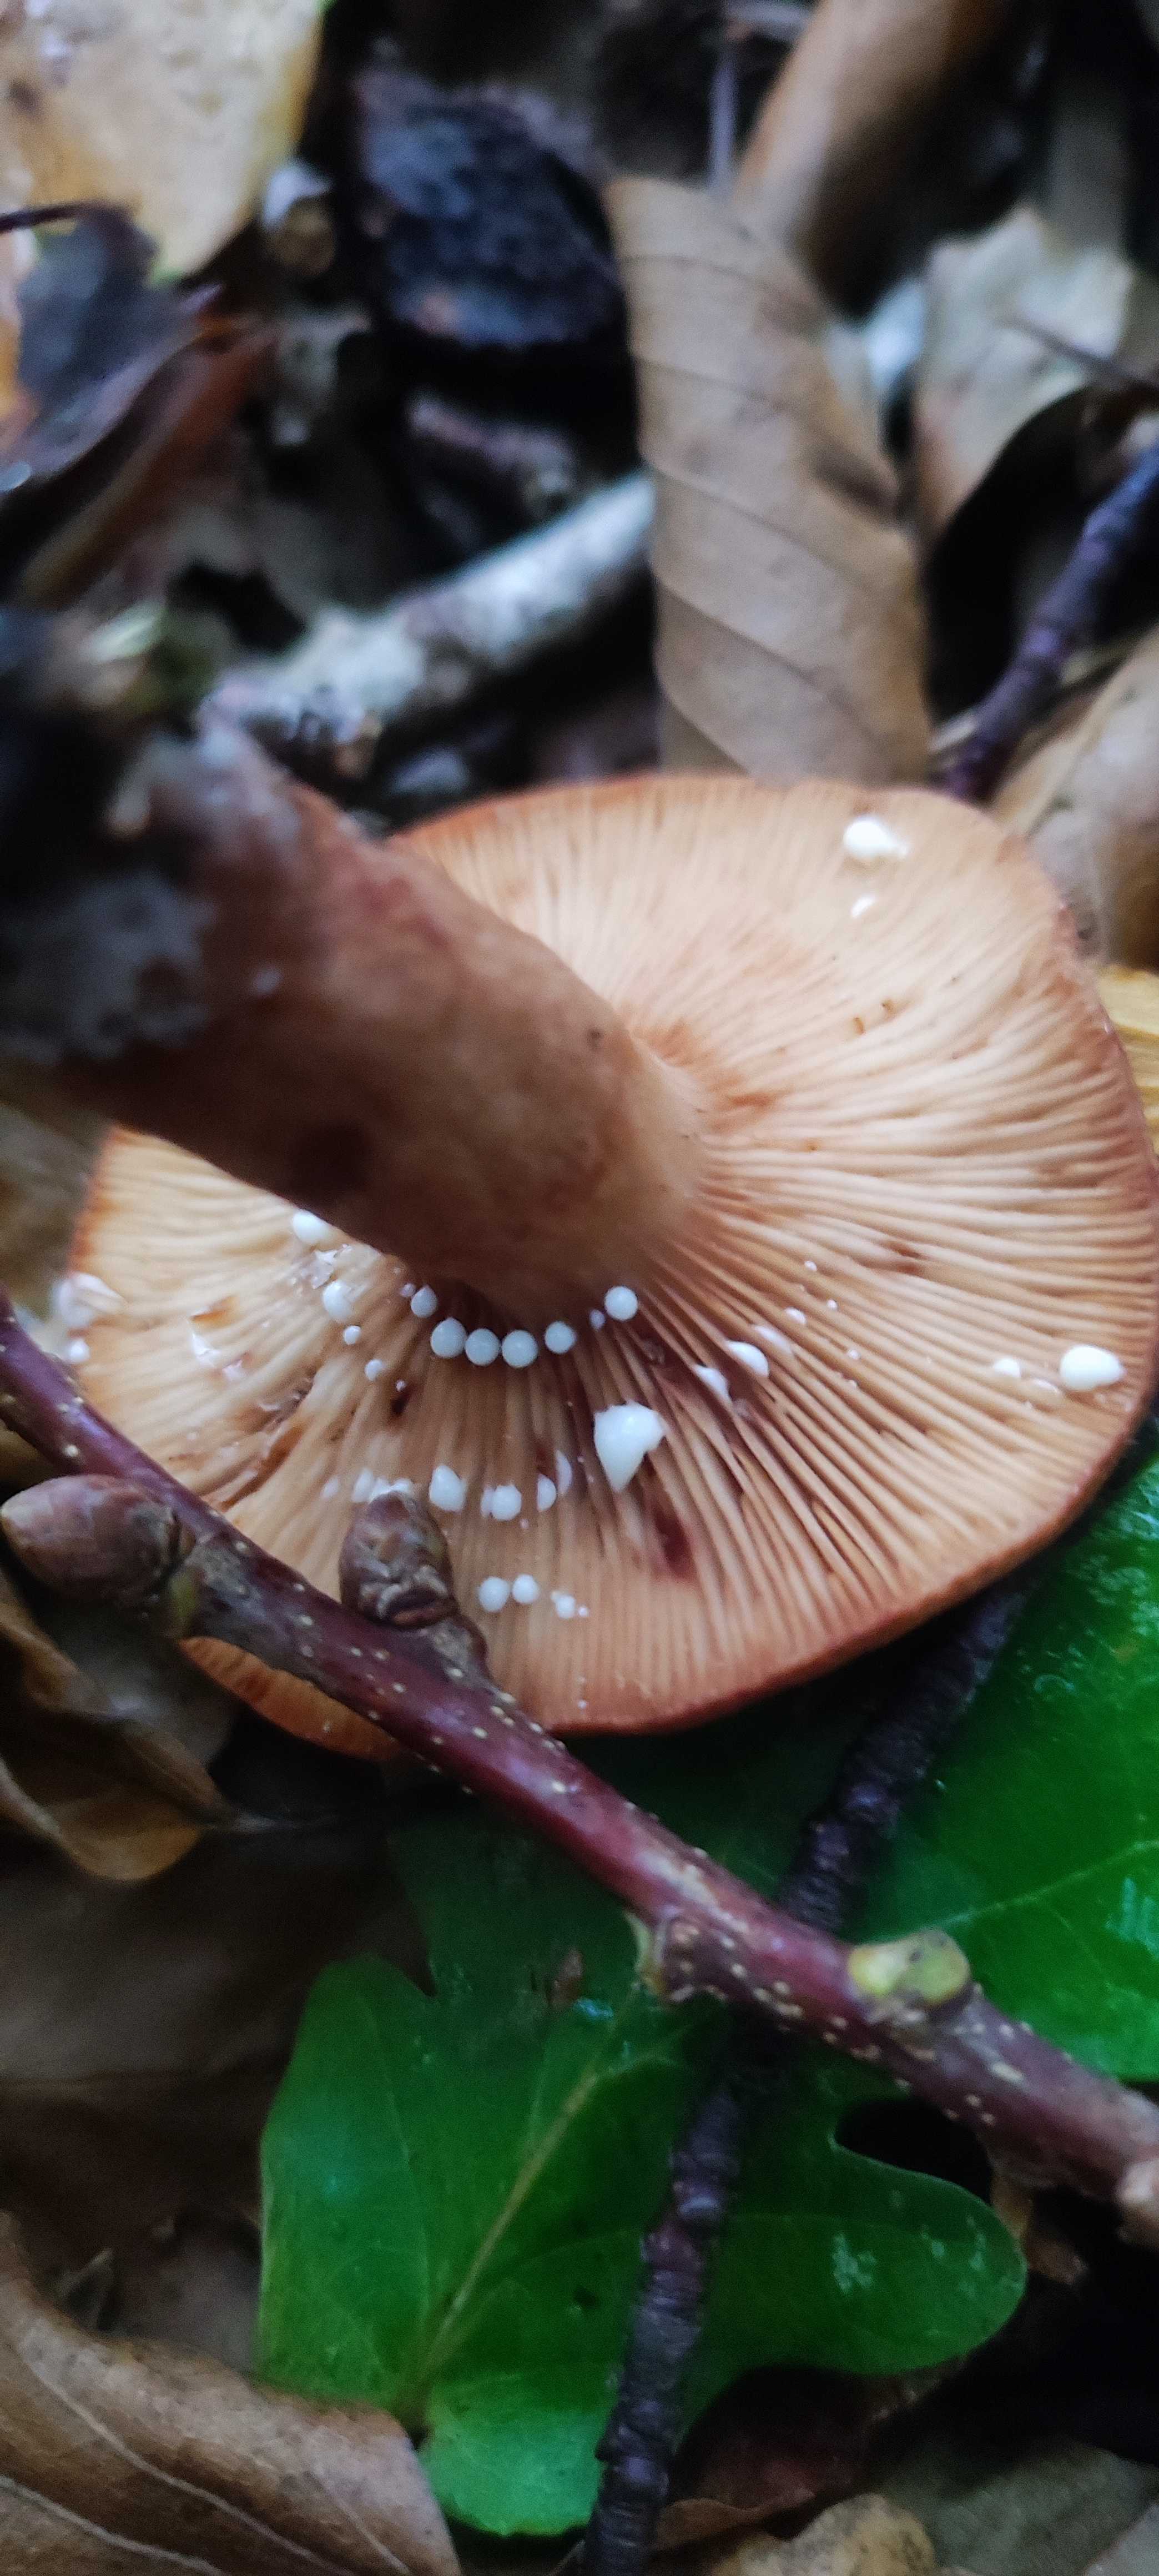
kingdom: Fungi
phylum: Basidiomycota
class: Agaricomycetes
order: Russulales
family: Russulaceae
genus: Lactarius
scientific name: Lactarius quietus
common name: ege-mælkehat
